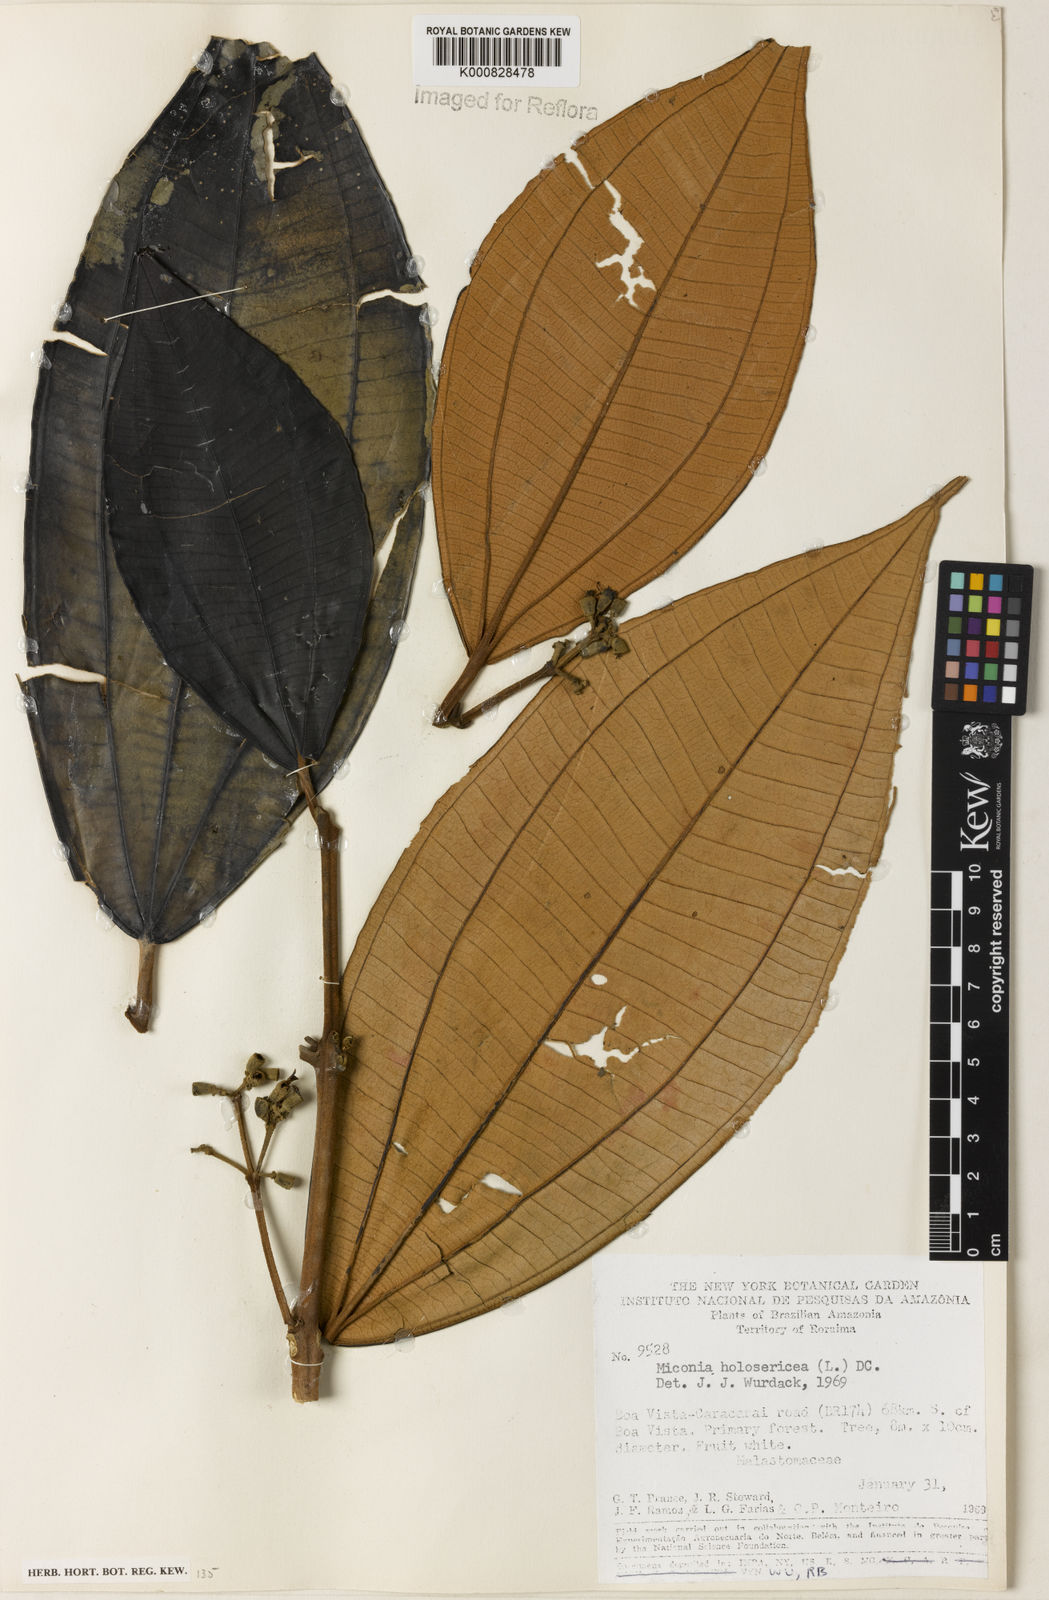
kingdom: Plantae
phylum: Tracheophyta
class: Magnoliopsida
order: Myrtales
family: Melastomataceae
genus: Miconia
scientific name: Miconia holosericea
